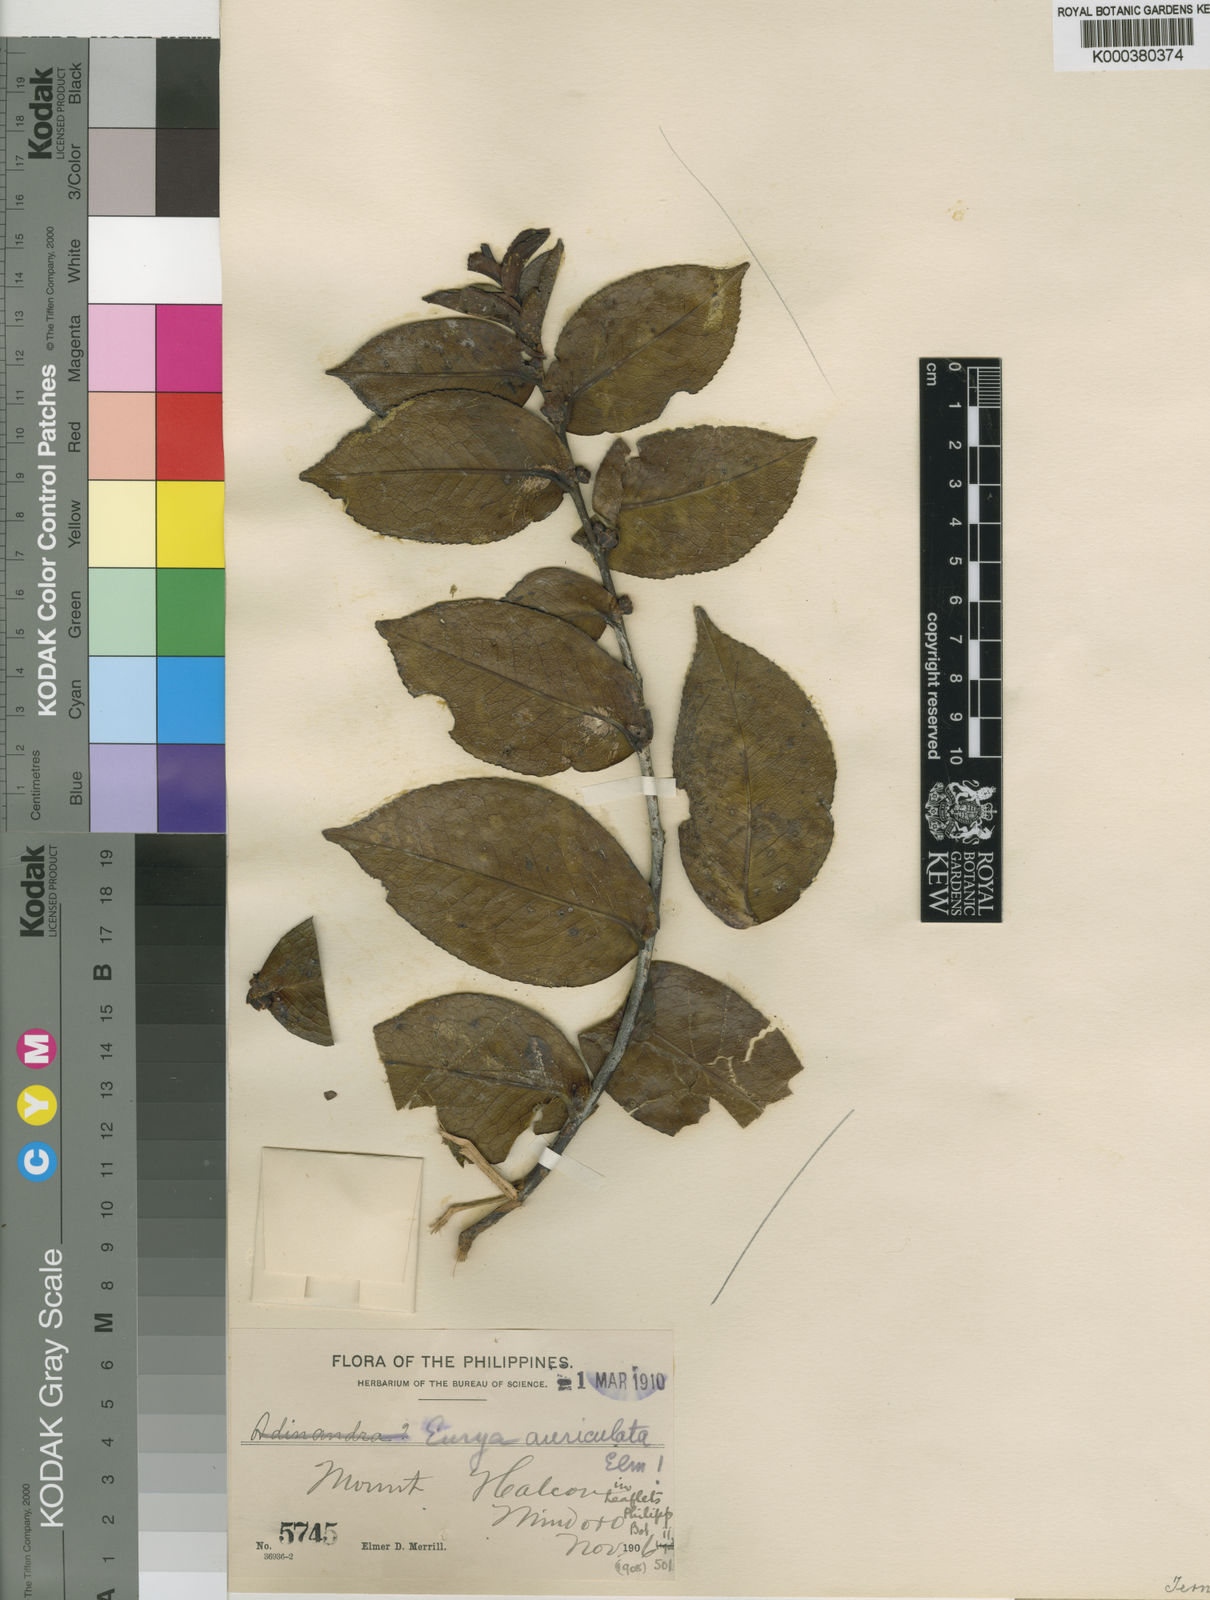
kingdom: Plantae
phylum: Tracheophyta
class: Magnoliopsida
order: Ericales
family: Pentaphylacaceae
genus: Eurya
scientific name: Eurya amplexicaulis
